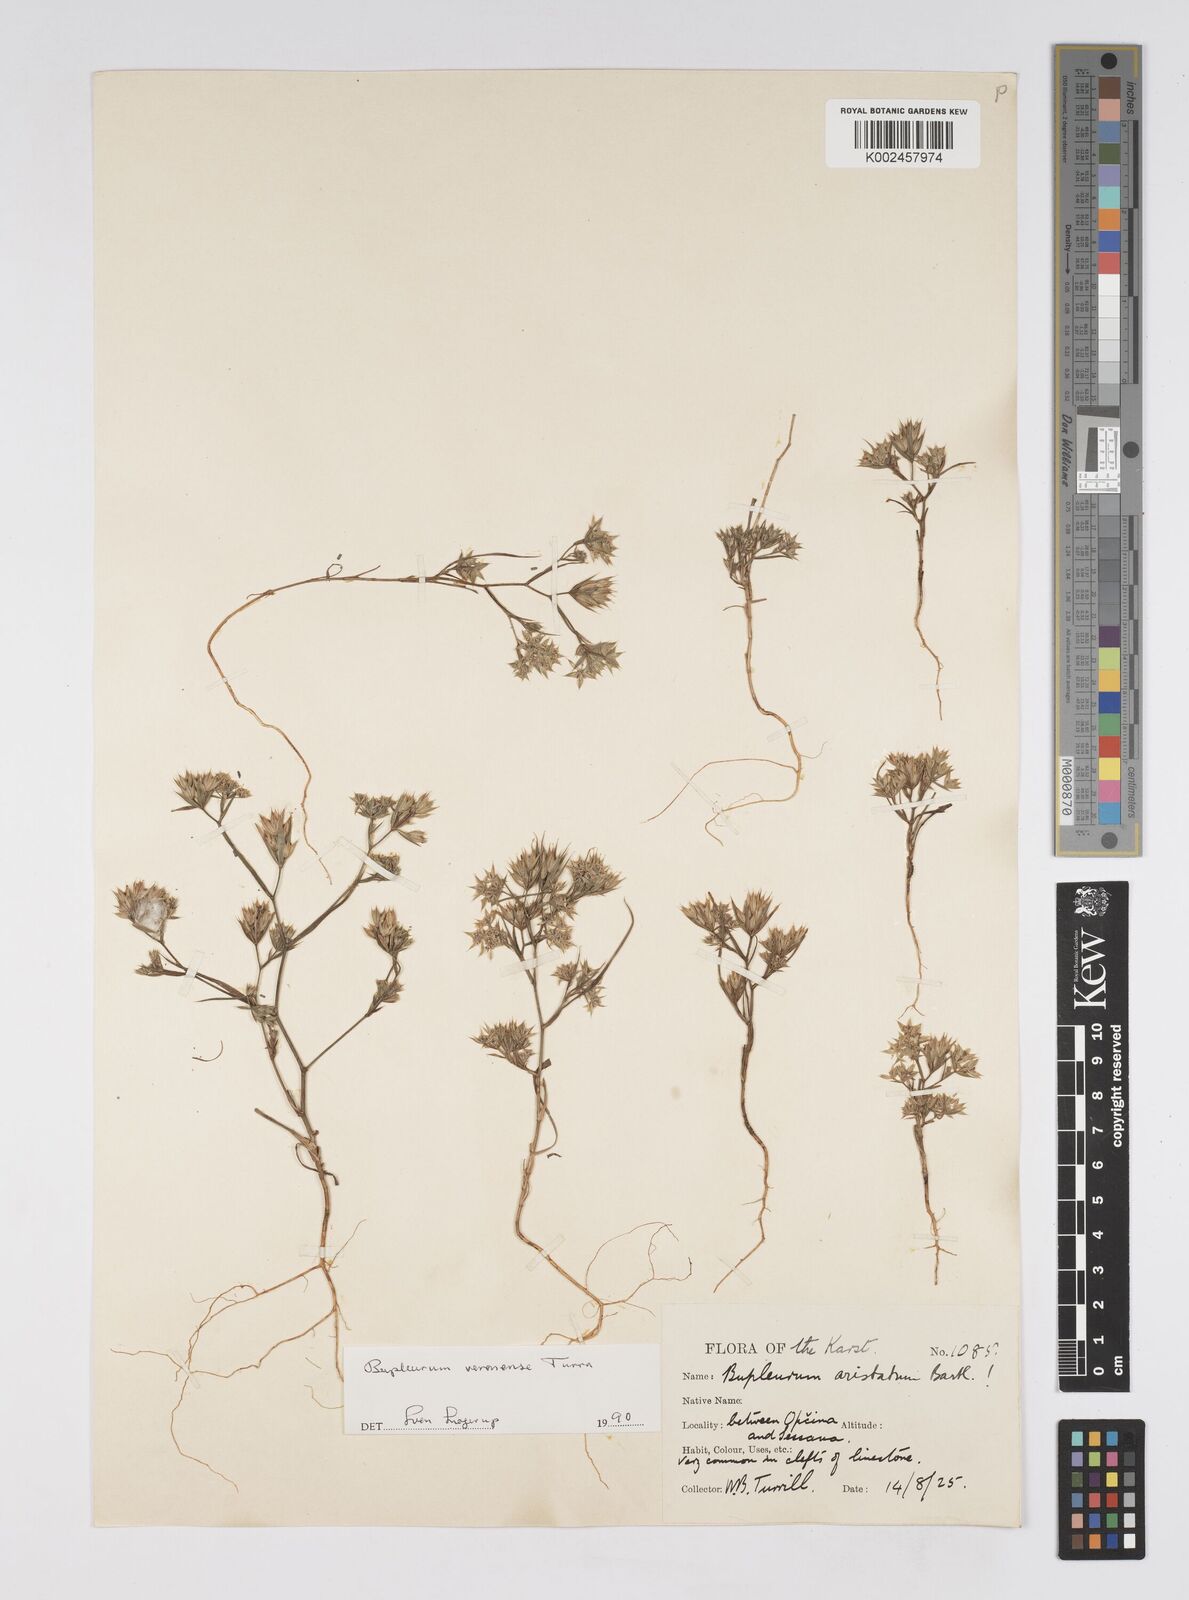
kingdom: Plantae
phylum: Tracheophyta
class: Magnoliopsida
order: Apiales
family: Apiaceae
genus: Bupleurum
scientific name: Bupleurum glumaceum
